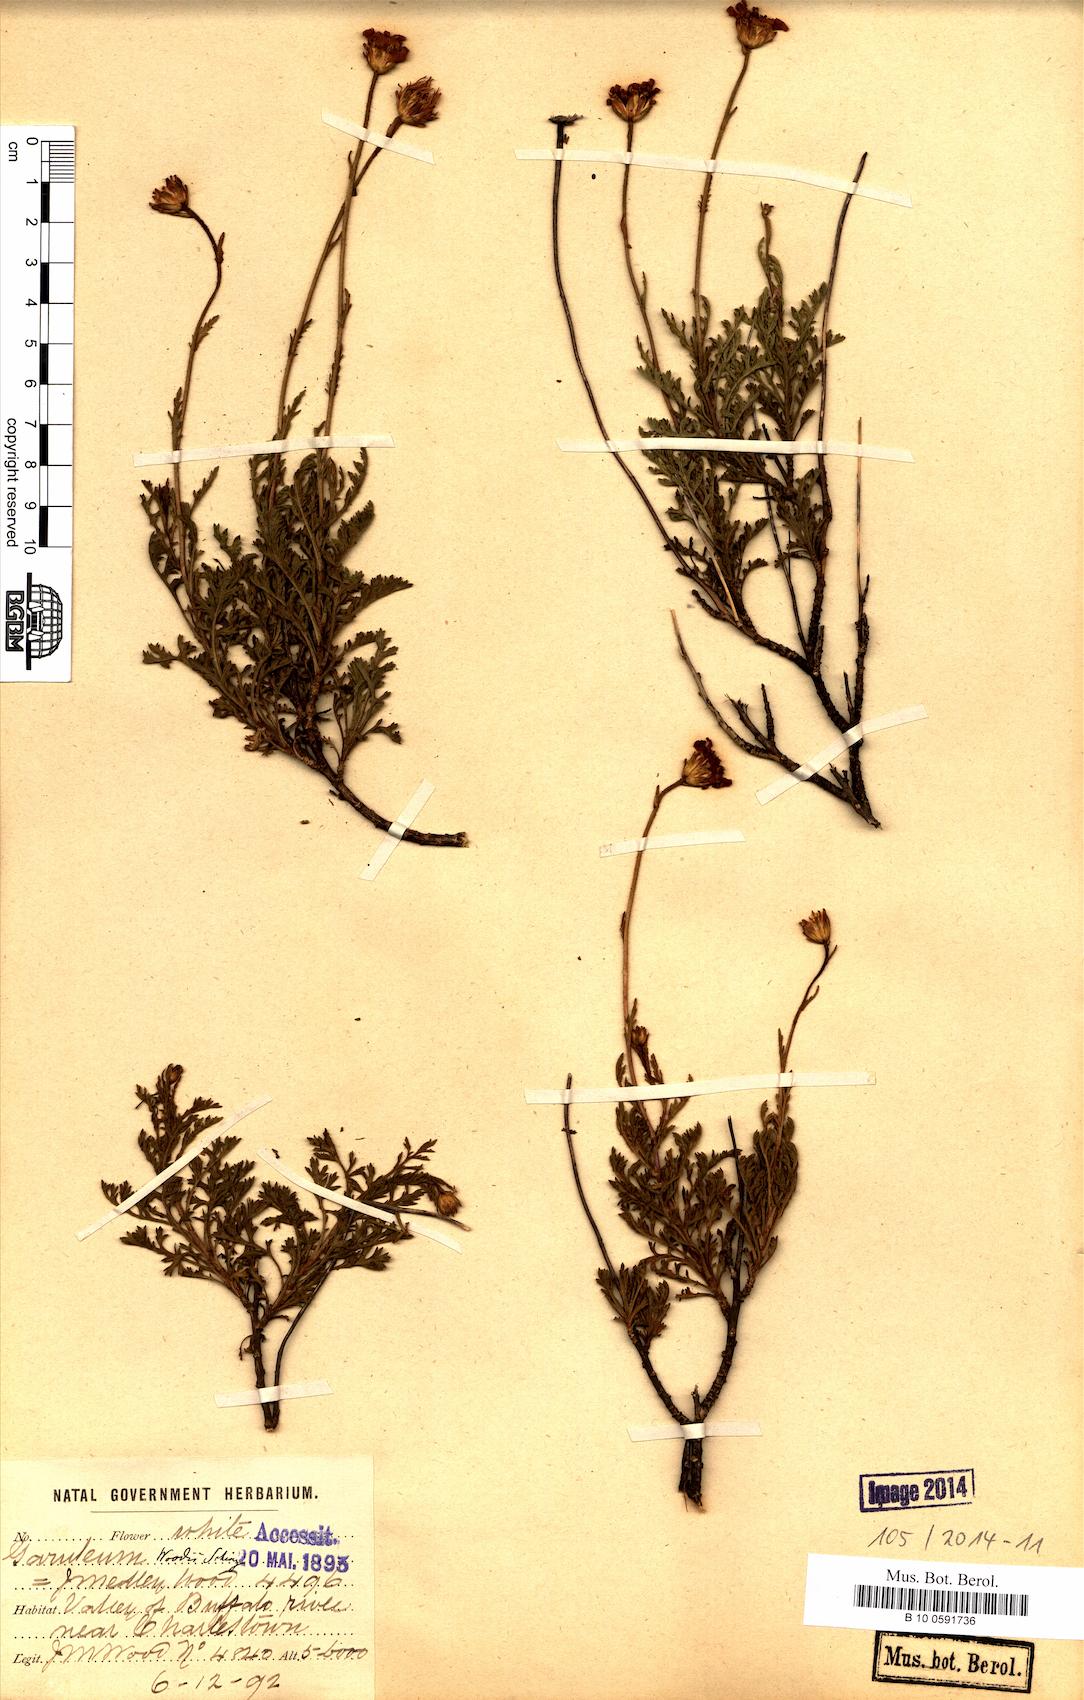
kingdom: Plantae
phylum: Tracheophyta
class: Magnoliopsida
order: Asterales
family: Asteraceae
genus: Garuleum
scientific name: Garuleum woodii
